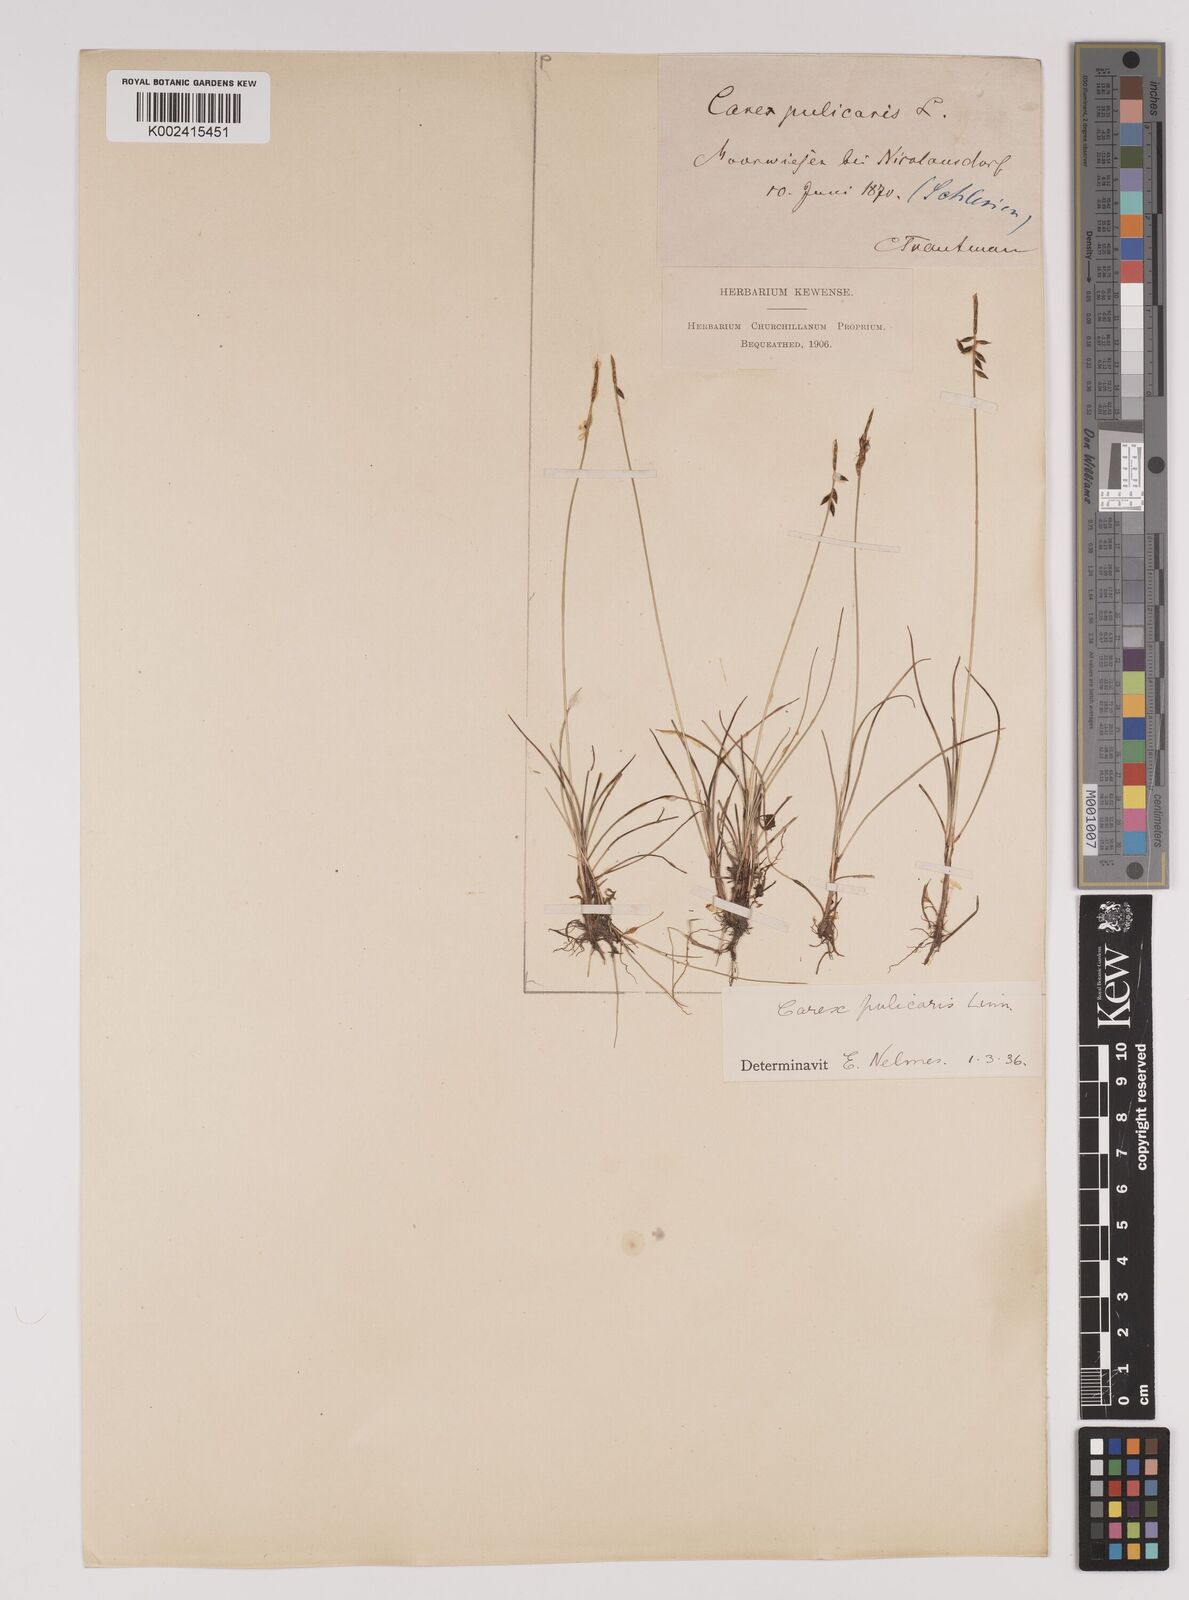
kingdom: Plantae
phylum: Tracheophyta
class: Liliopsida
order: Poales
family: Cyperaceae
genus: Carex
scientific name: Carex pulicaris
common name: Flea sedge
